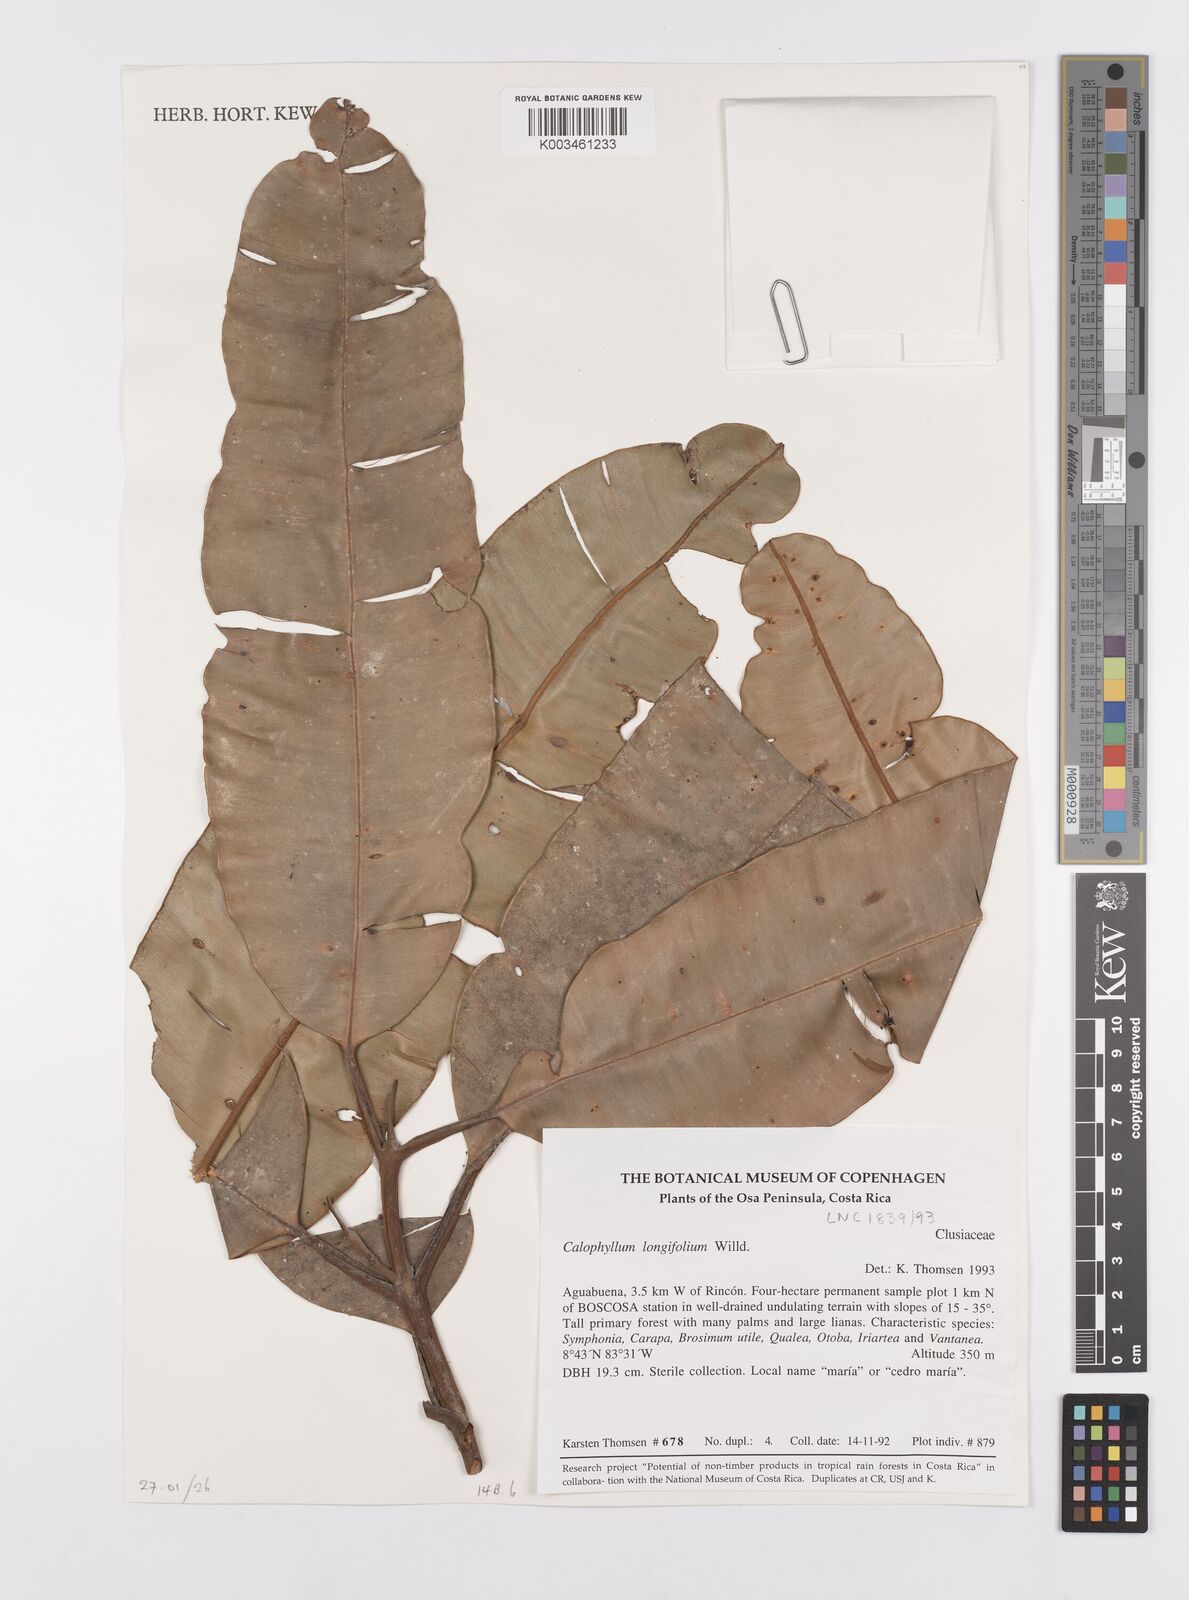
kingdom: Plantae
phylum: Tracheophyta
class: Magnoliopsida
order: Malpighiales
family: Calophyllaceae
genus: Calophyllum
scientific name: Calophyllum longifolium
